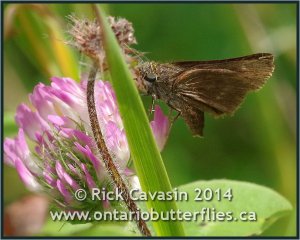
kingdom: Animalia
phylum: Arthropoda
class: Insecta
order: Lepidoptera
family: Hesperiidae
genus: Euphyes
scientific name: Euphyes vestris
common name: Dun Skipper
